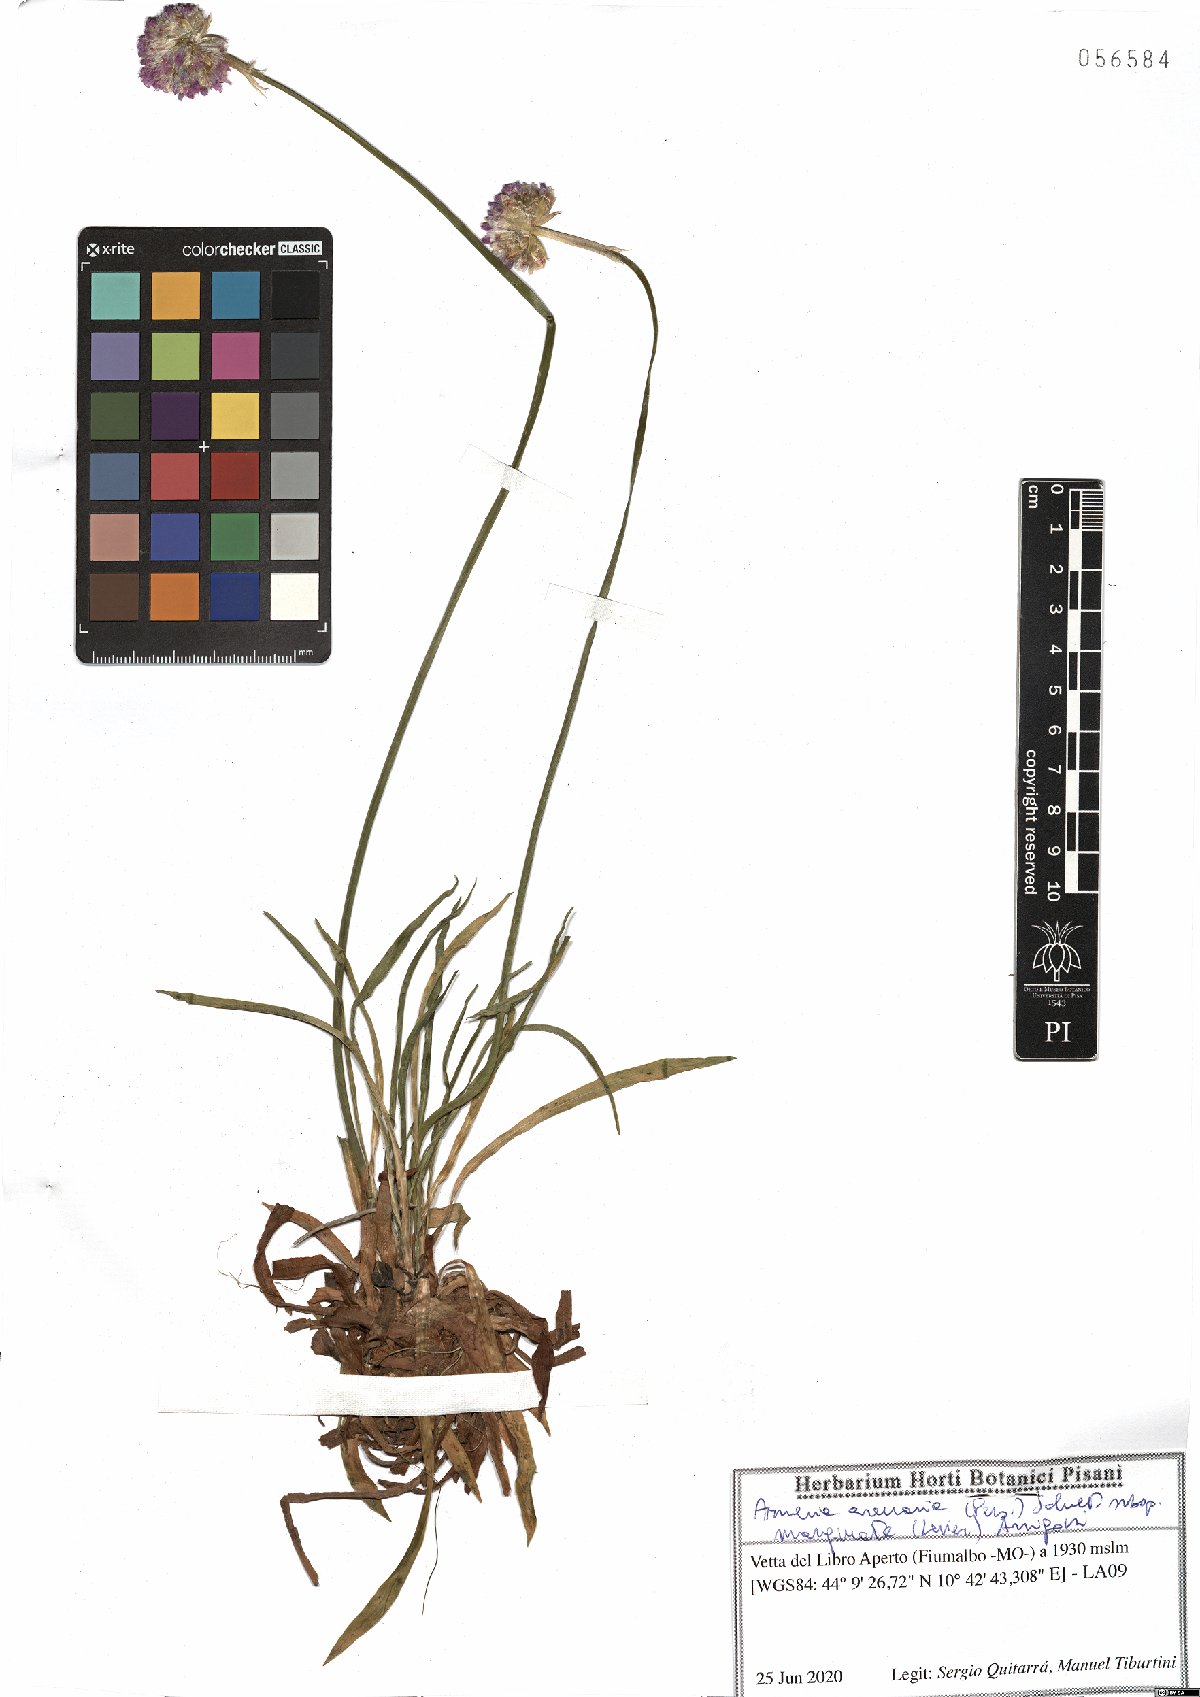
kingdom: Plantae
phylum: Tracheophyta
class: Magnoliopsida
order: Caryophyllales
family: Plumbaginaceae
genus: Armeria
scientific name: Armeria arenaria
